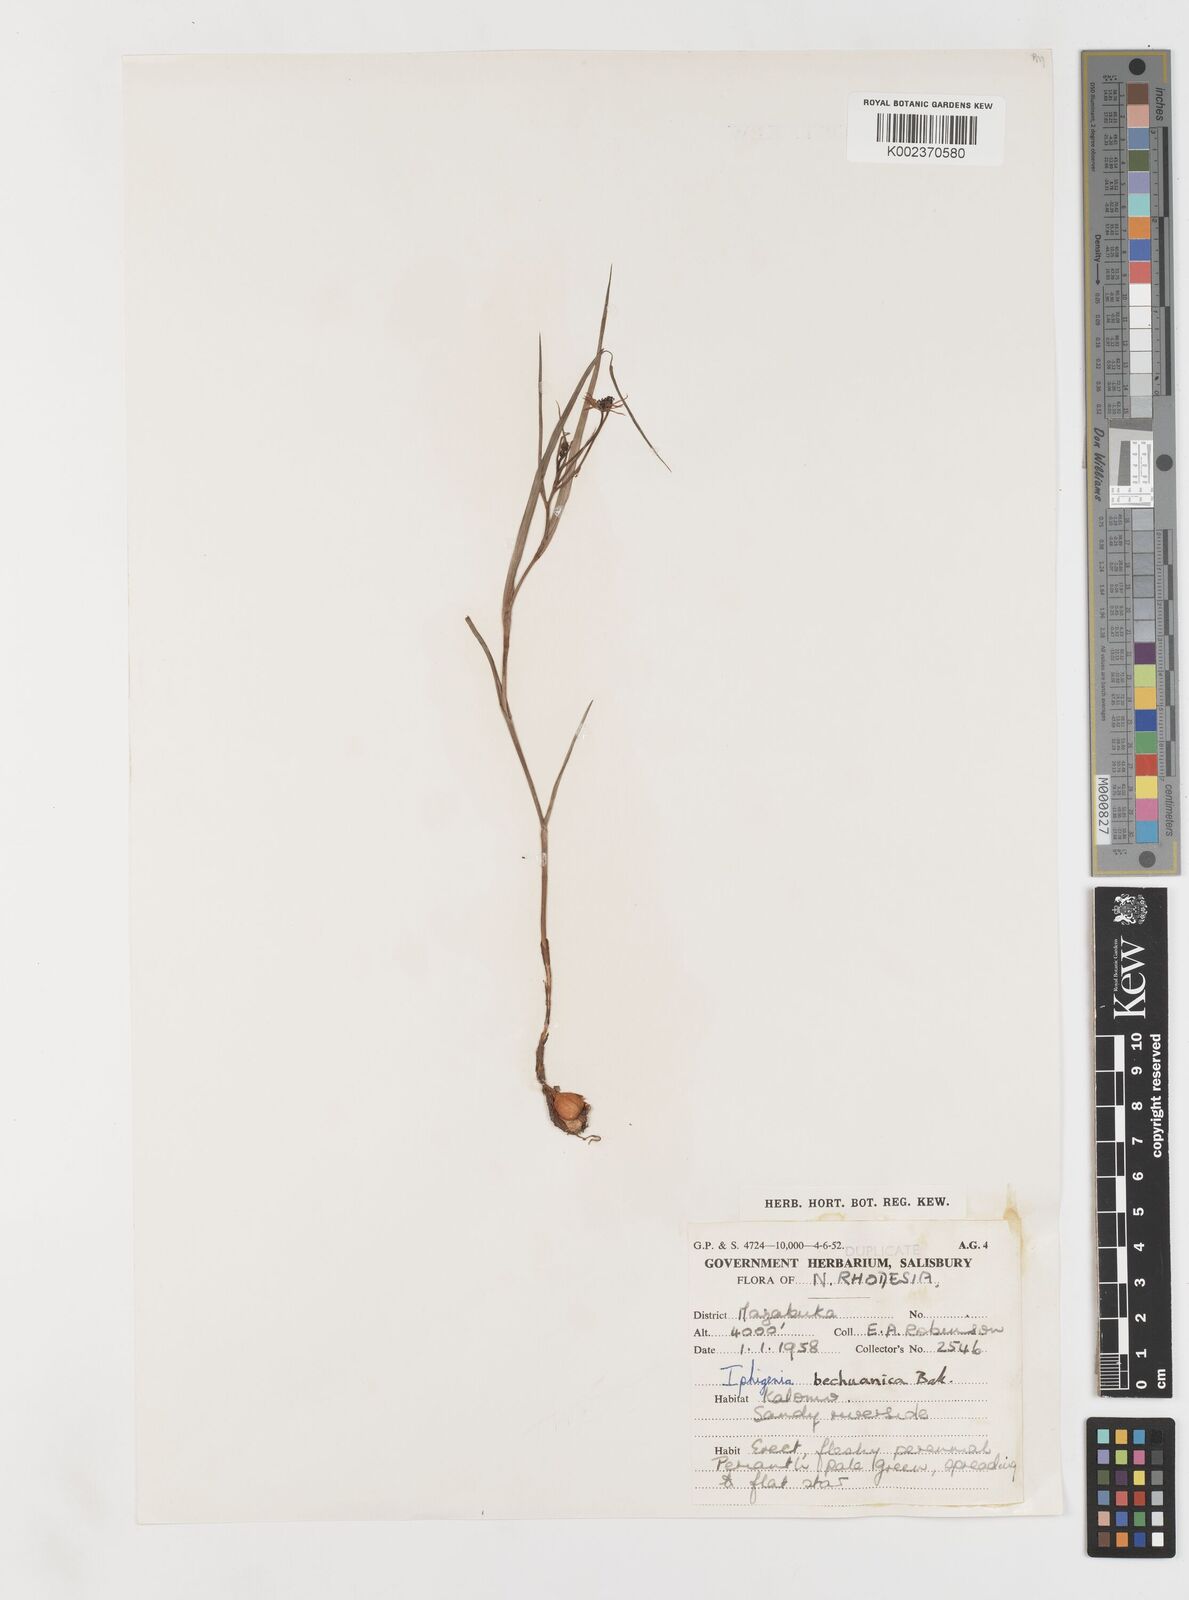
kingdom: Plantae
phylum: Tracheophyta
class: Liliopsida
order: Liliales
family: Colchicaceae
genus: Iphigenia
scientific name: Iphigenia oliveri
